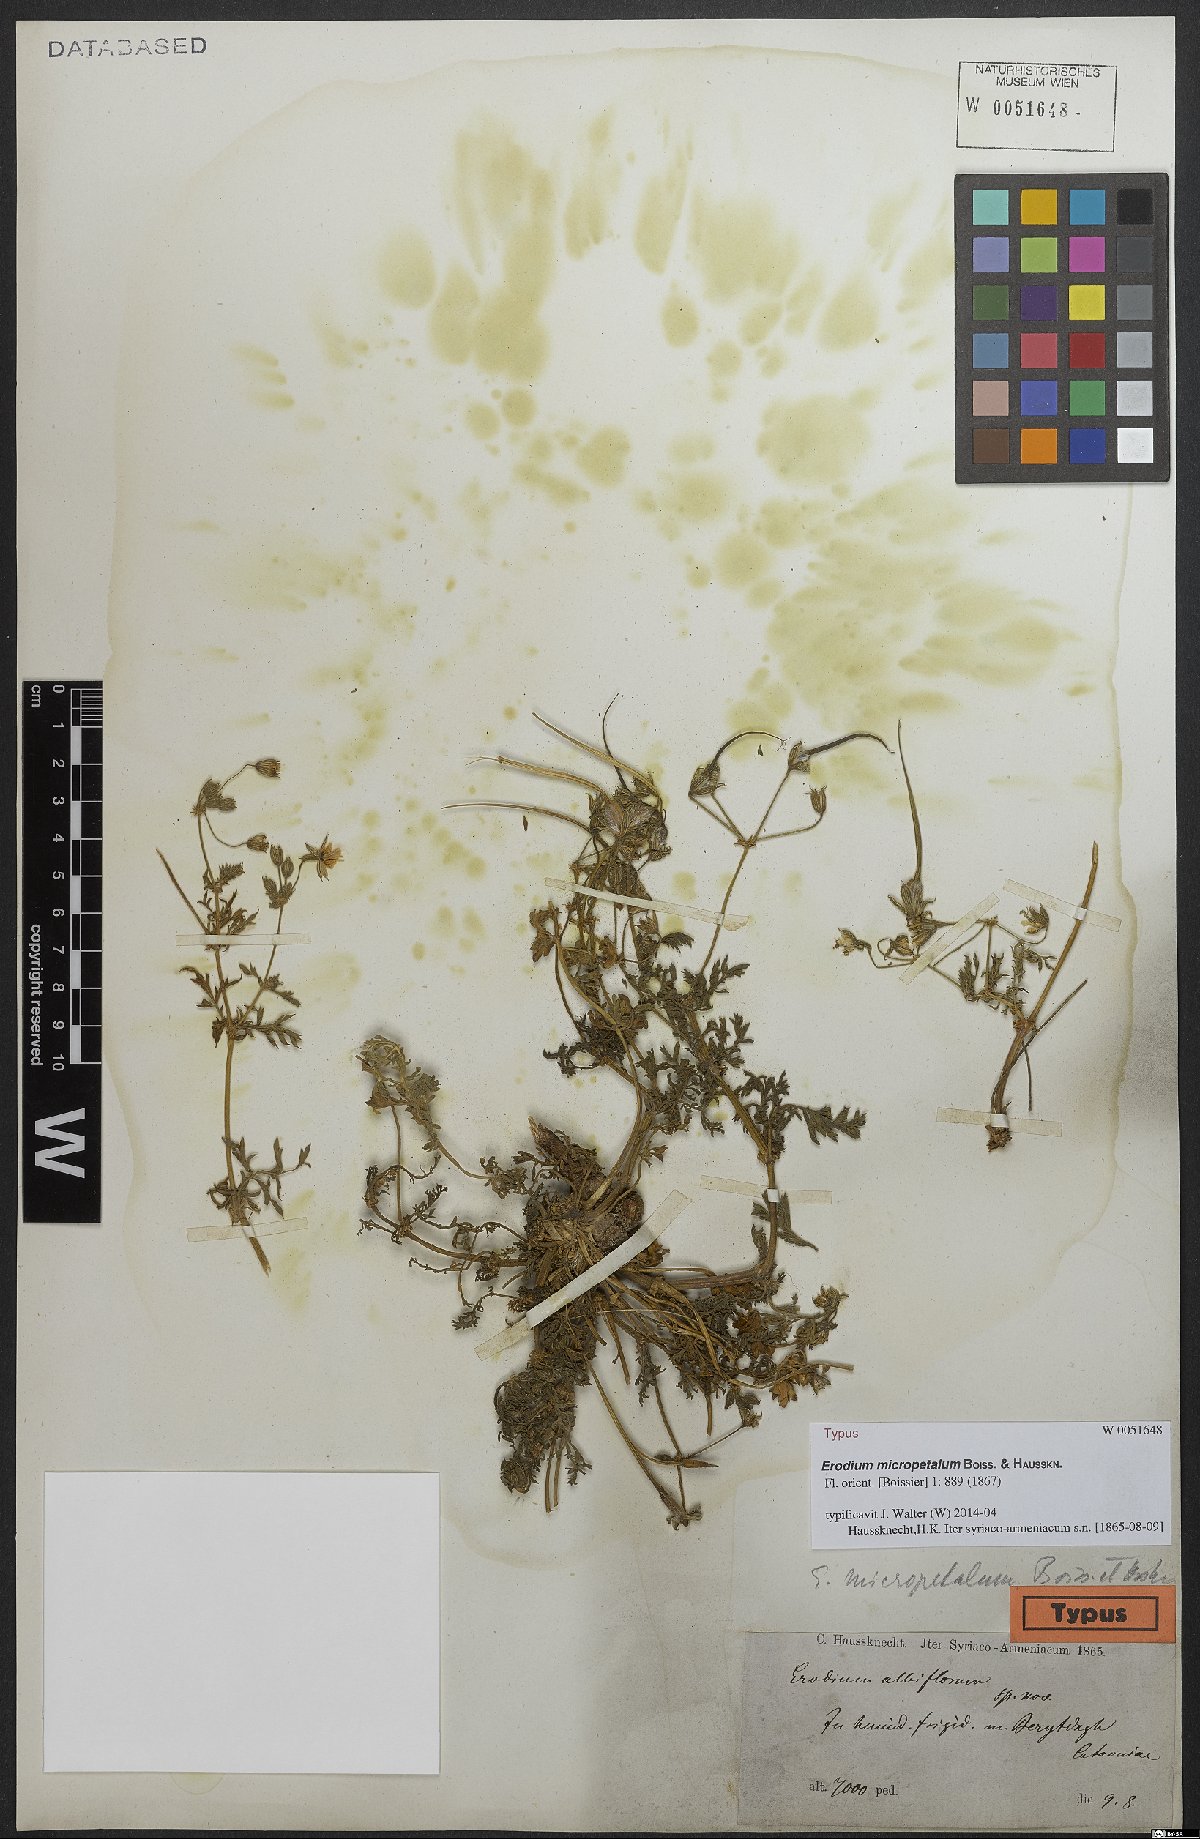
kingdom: Plantae
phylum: Tracheophyta
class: Magnoliopsida
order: Geraniales
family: Geraniaceae
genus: Erodium
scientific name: Erodium cedrorum
